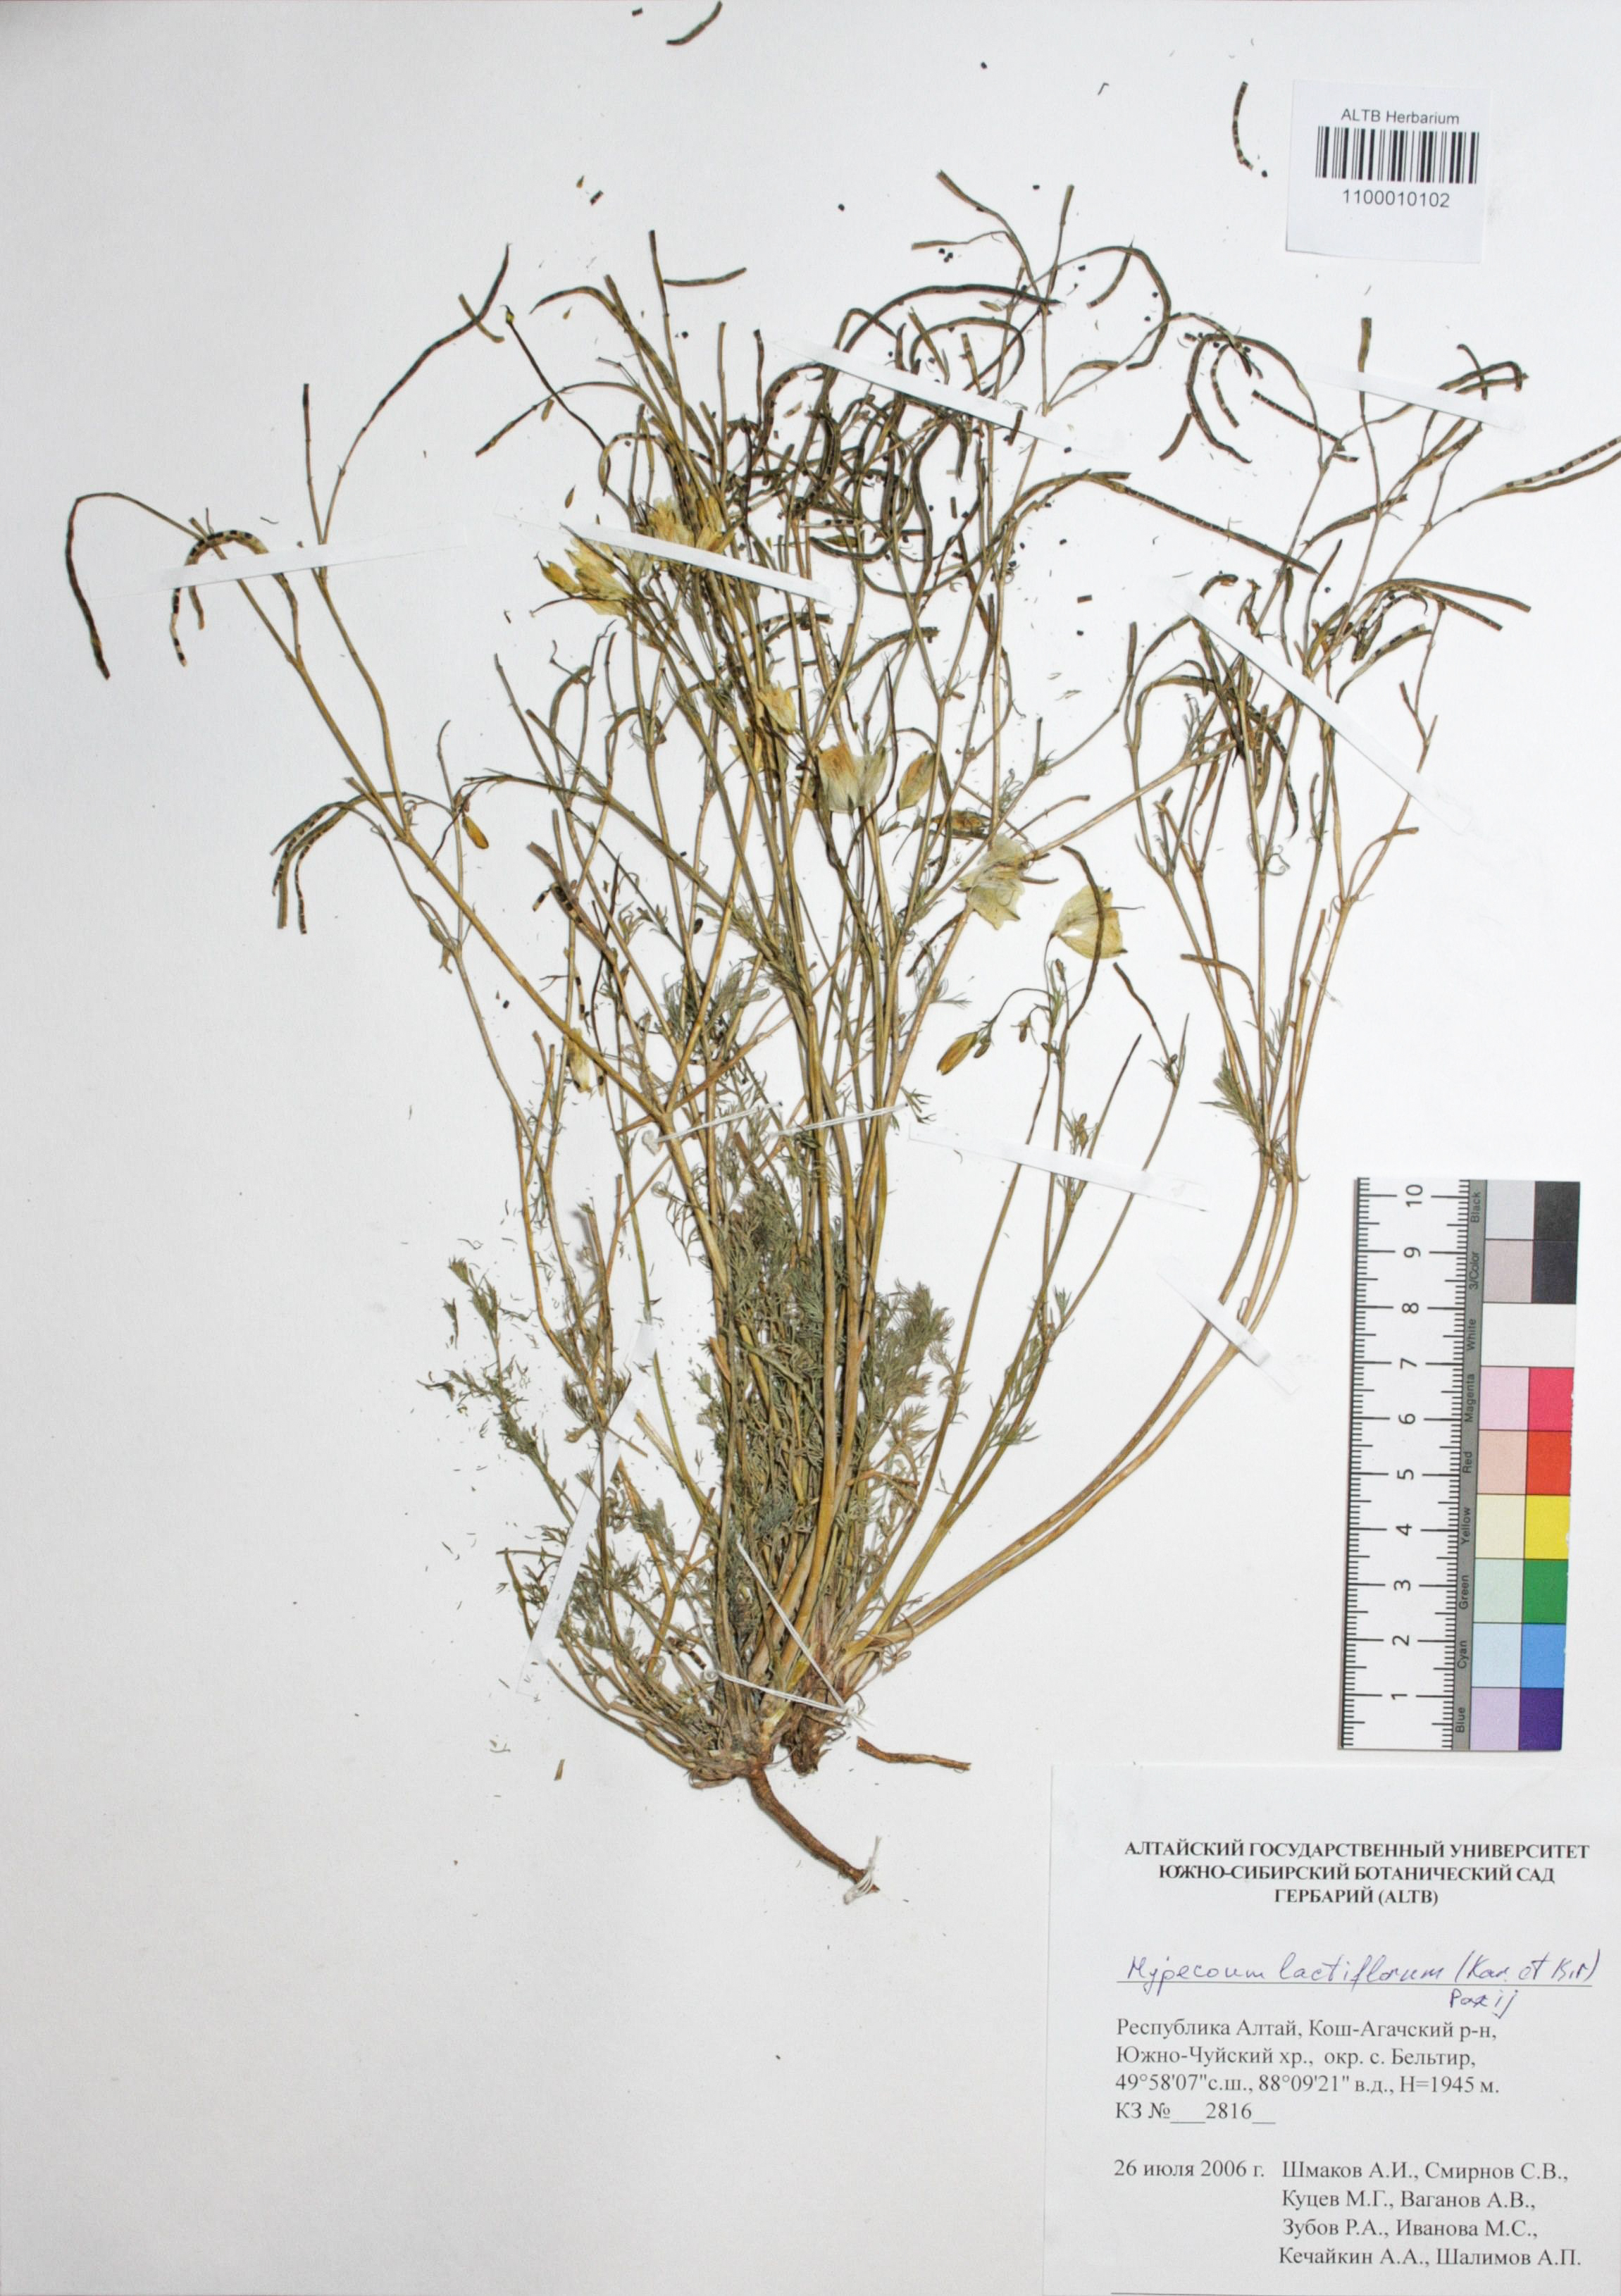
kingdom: Plantae
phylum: Tracheophyta
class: Magnoliopsida
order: Ranunculales
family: Papaveraceae
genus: Hypecoum
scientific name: Hypecoum lactiflorum
